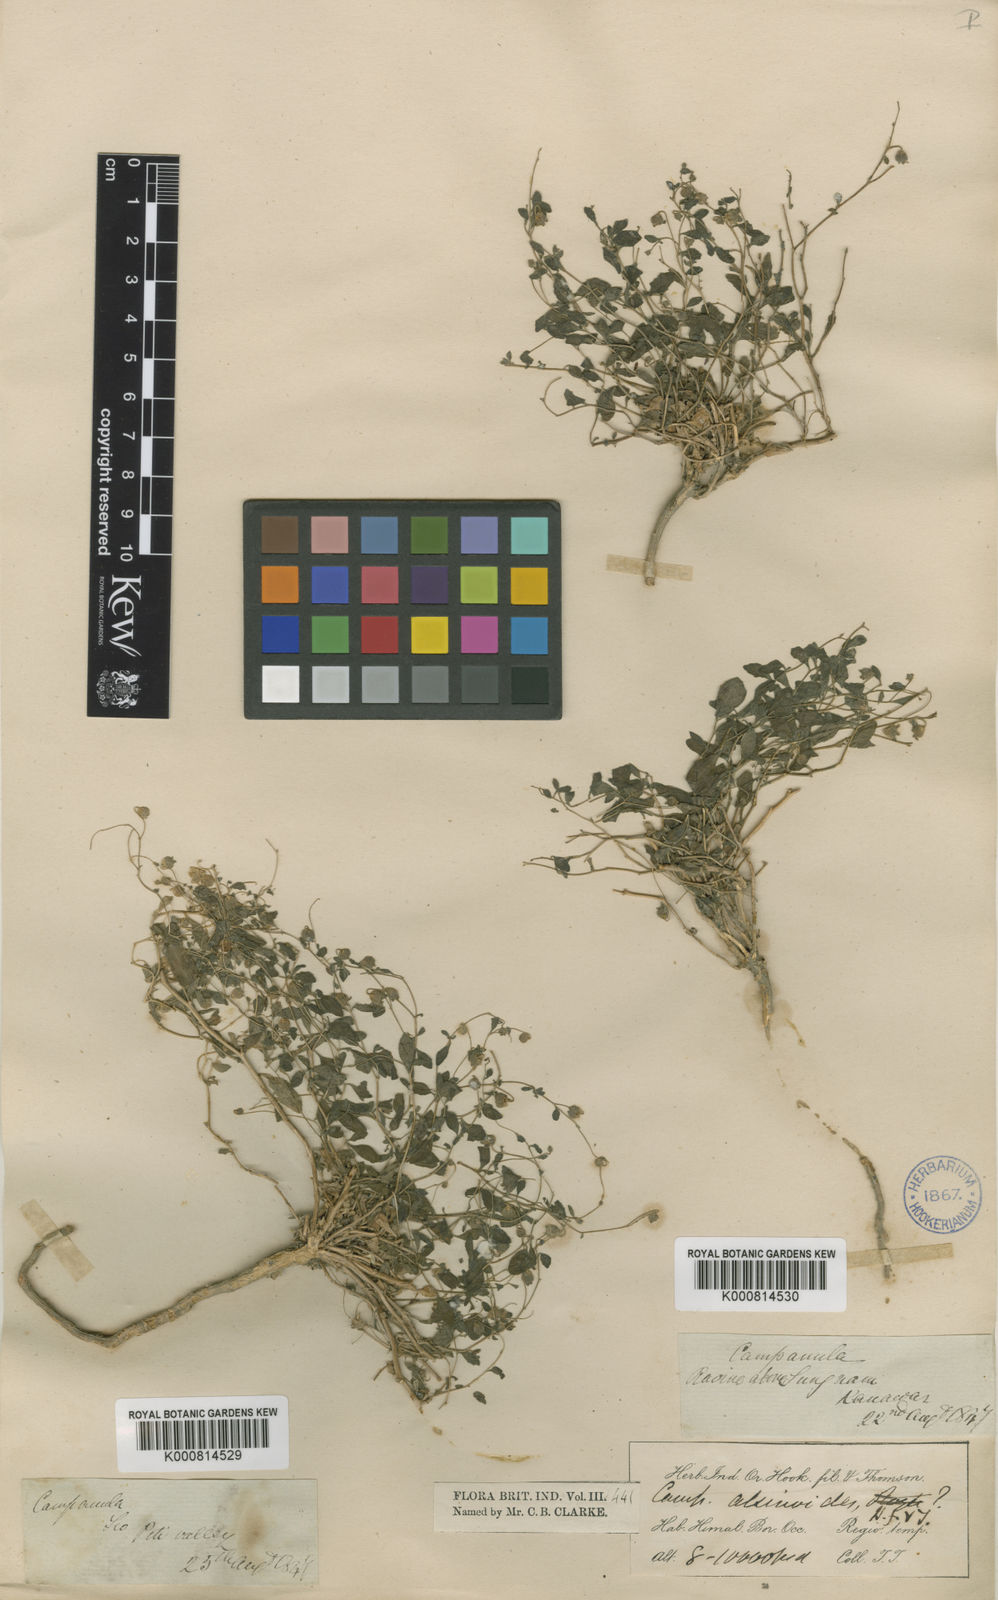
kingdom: Plantae
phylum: Tracheophyta
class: Magnoliopsida
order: Asterales
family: Campanulaceae
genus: Campanula
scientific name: Campanula alsinoides
